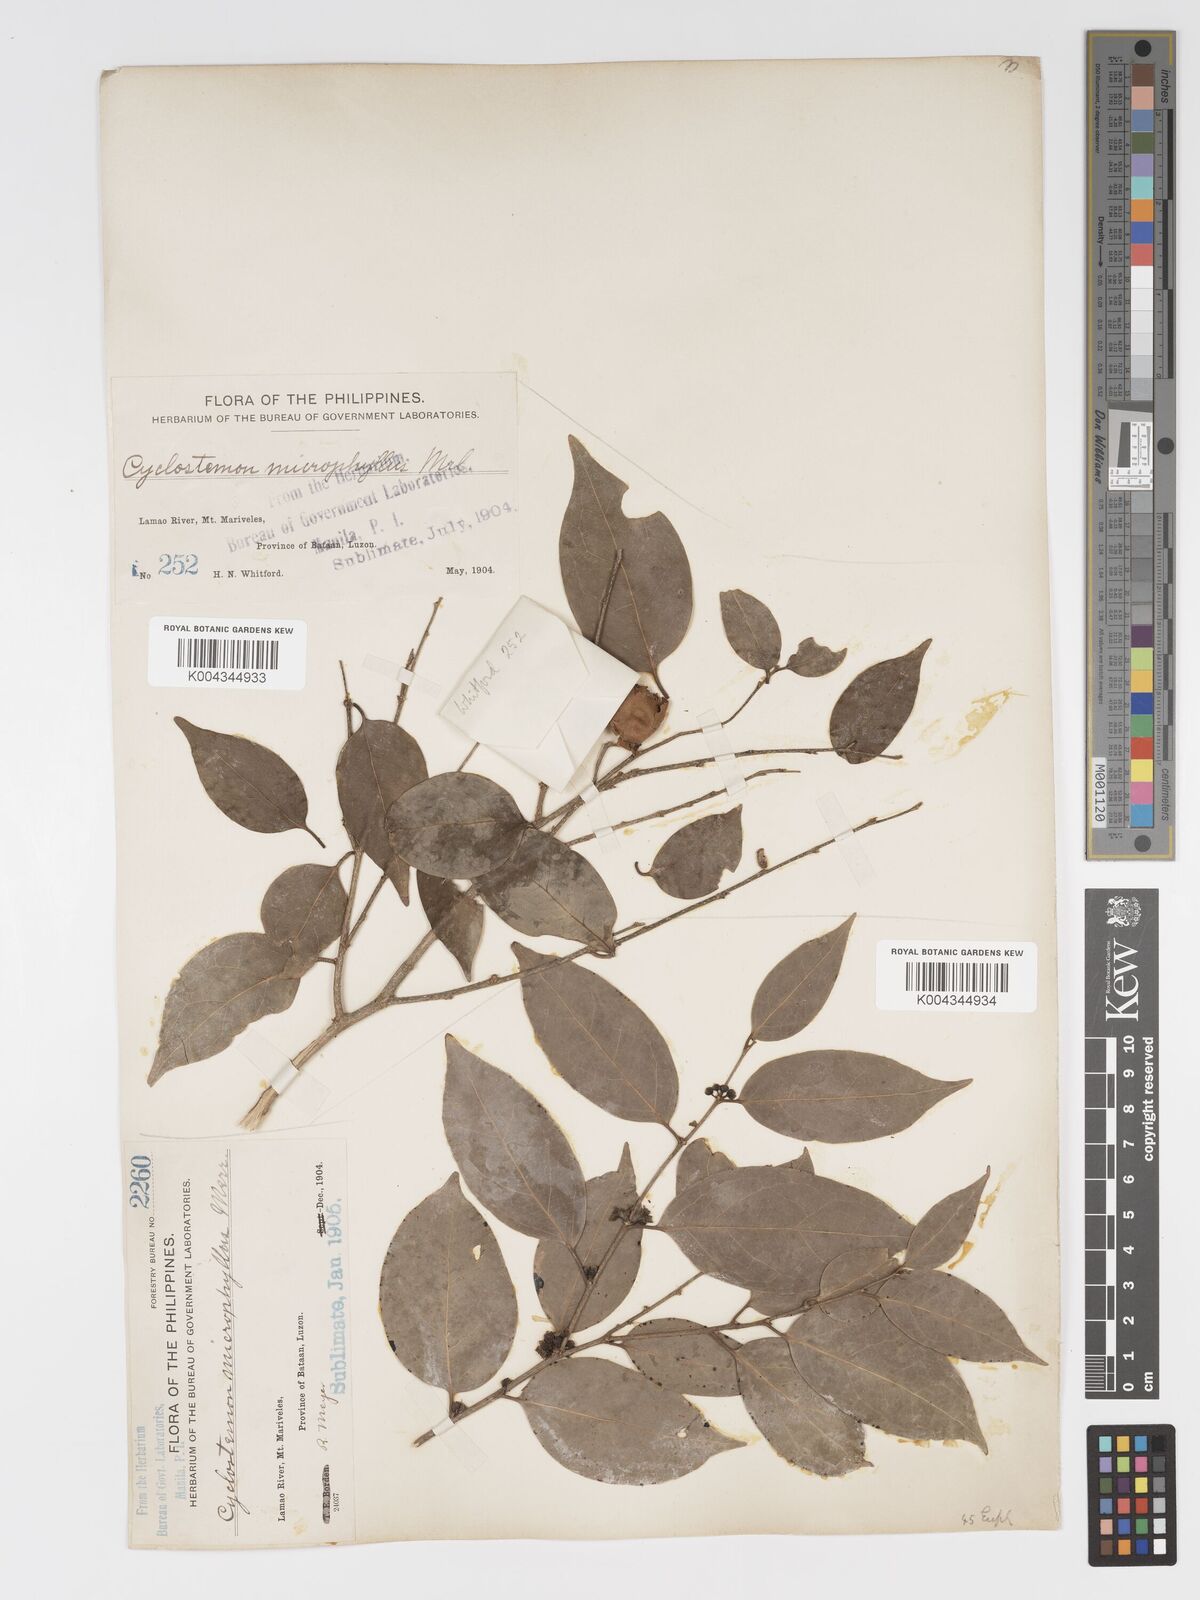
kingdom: Plantae
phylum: Tracheophyta
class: Magnoliopsida
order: Malpighiales
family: Putranjivaceae
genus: Drypetes
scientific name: Drypetes microphylla
